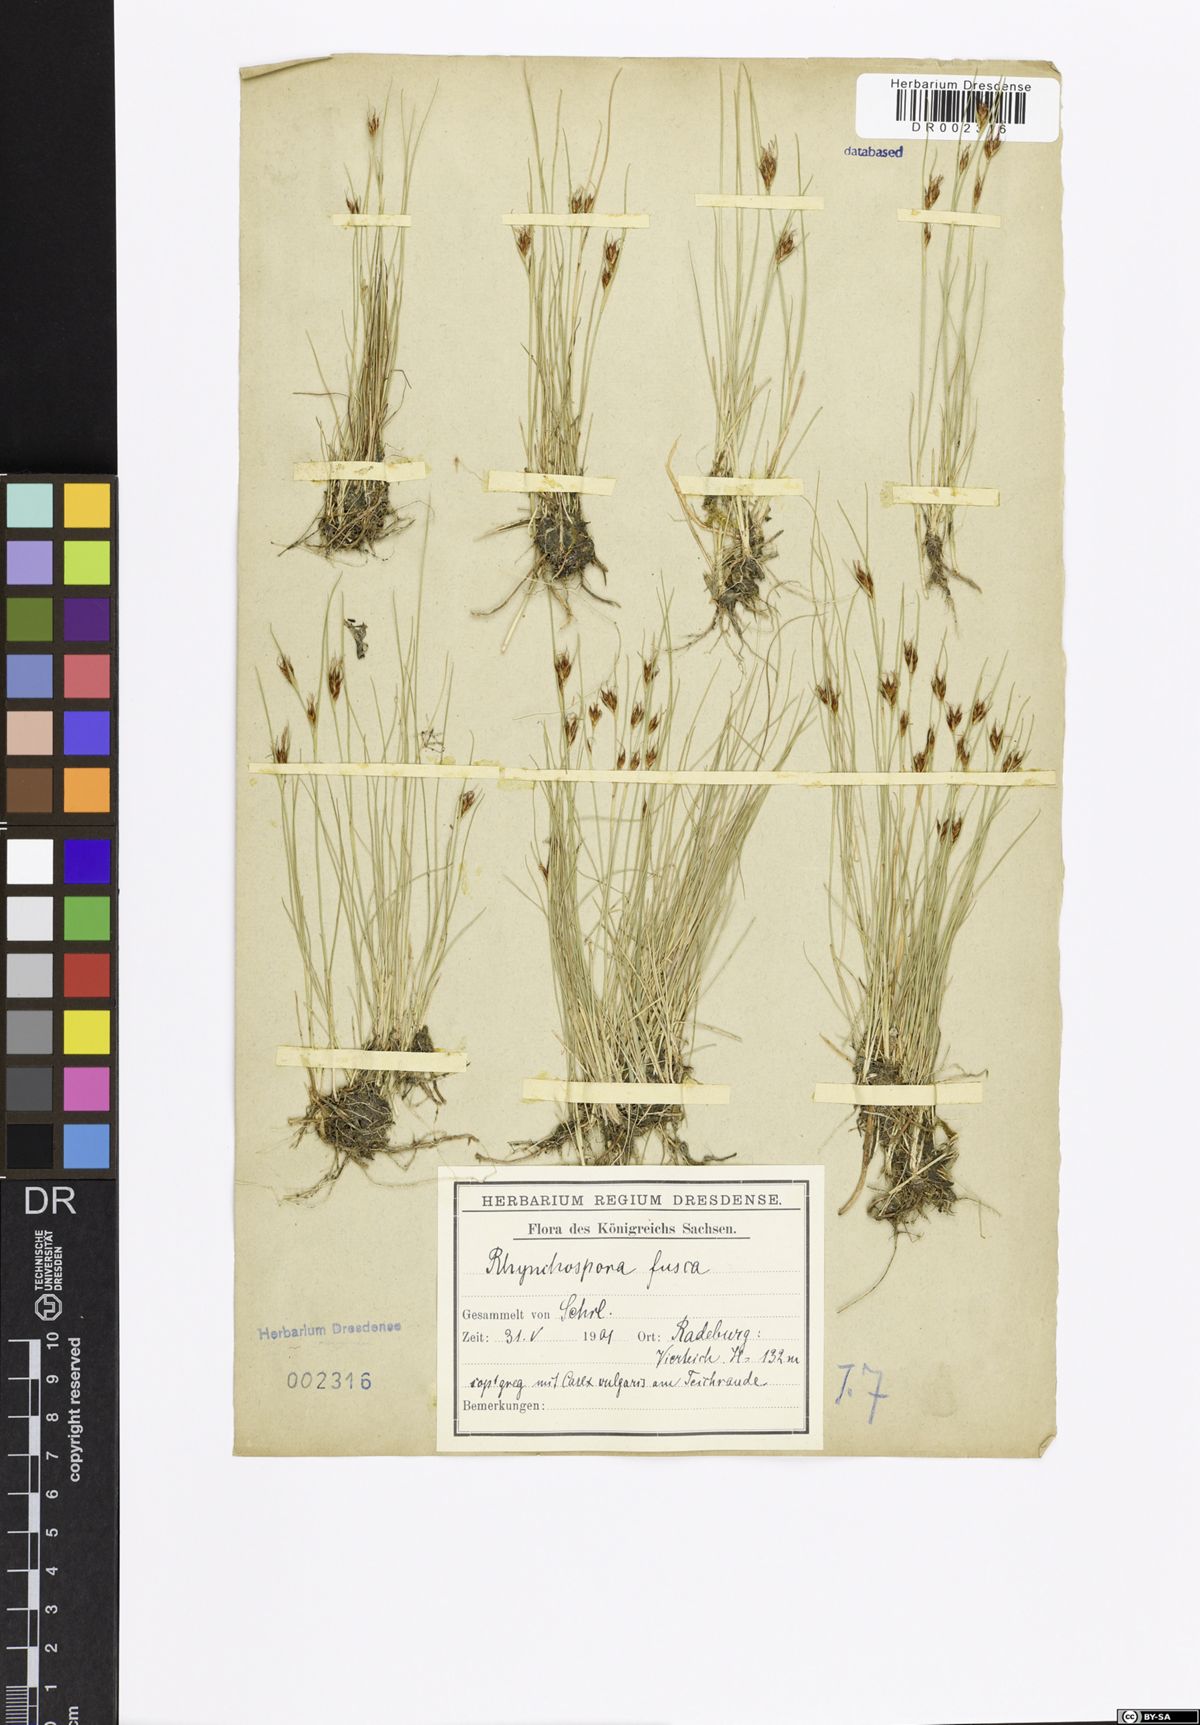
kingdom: Plantae
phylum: Tracheophyta
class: Liliopsida
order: Poales
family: Cyperaceae
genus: Rhynchospora
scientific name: Rhynchospora fusca
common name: Brown beak-sedge
